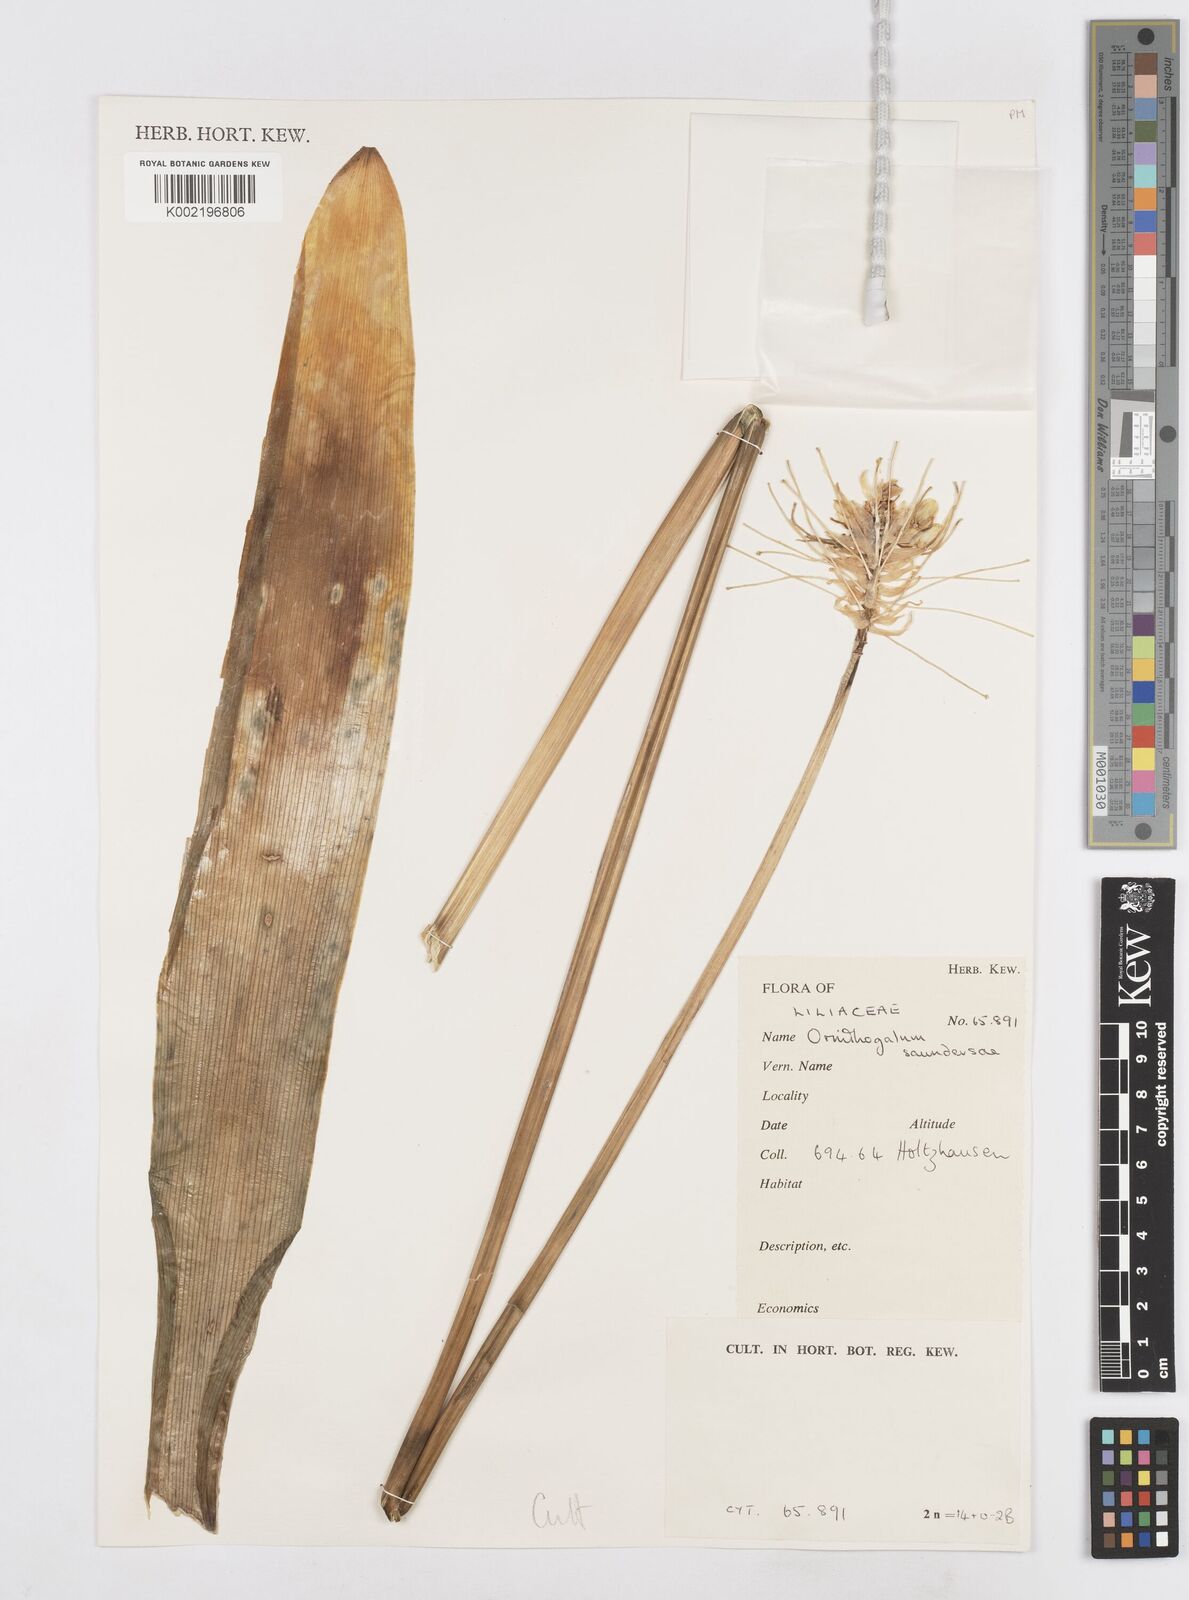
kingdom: Plantae
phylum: Tracheophyta
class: Liliopsida
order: Asparagales
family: Asparagaceae
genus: Ornithogalum
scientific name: Ornithogalum saundersiae
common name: Giant chincherinchee
